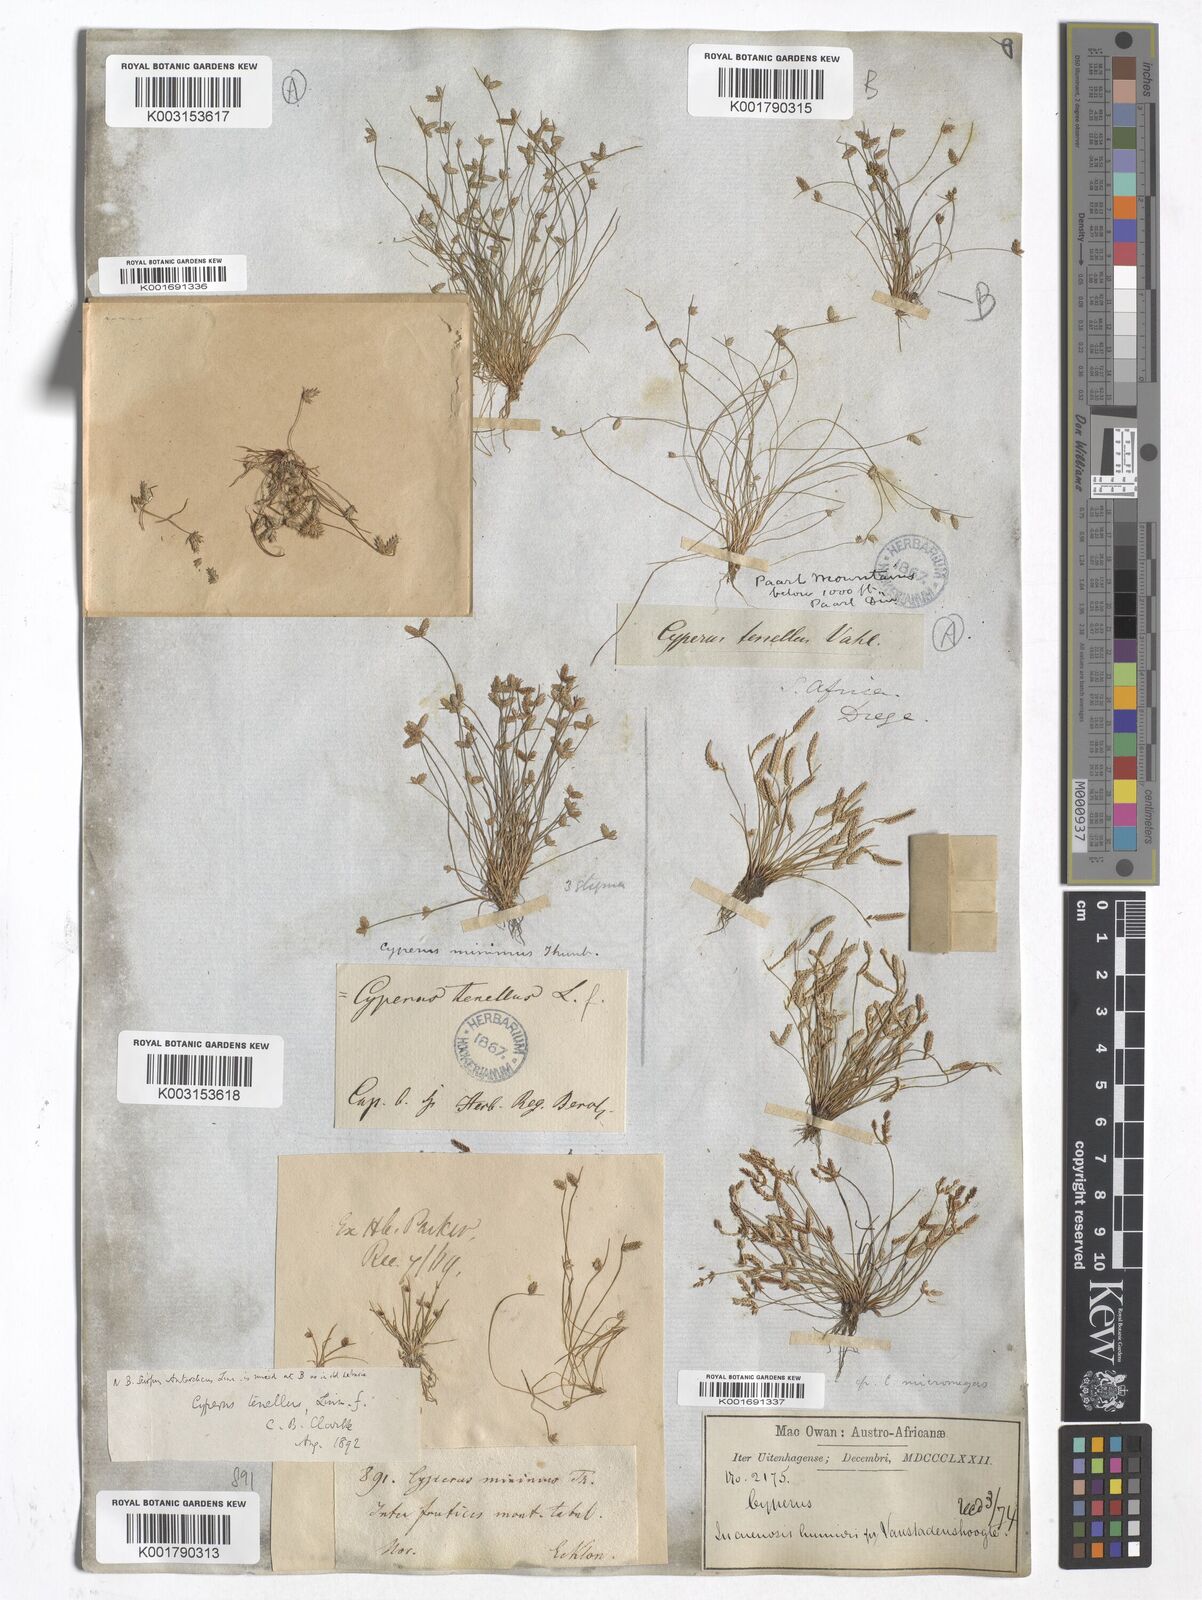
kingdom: Plantae
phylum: Tracheophyta
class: Liliopsida
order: Poales
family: Cyperaceae
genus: Cyperus
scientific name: Cyperus
